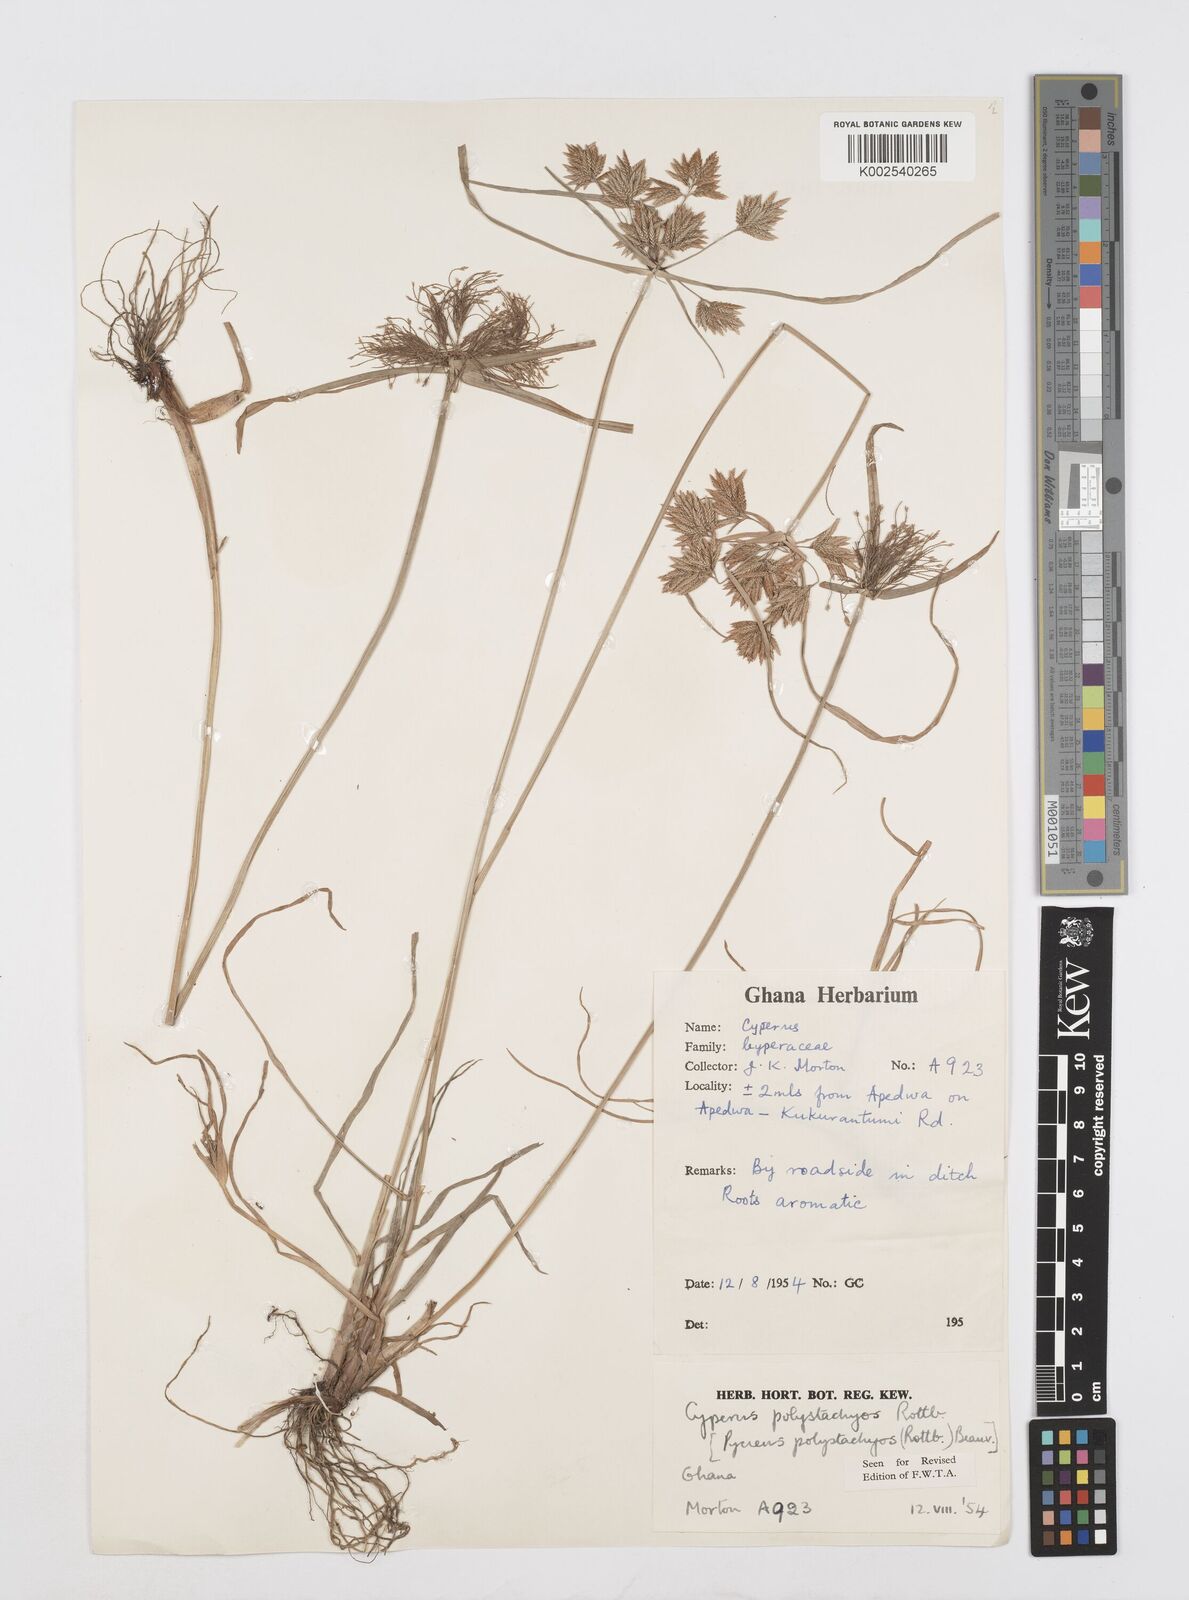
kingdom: Plantae
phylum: Tracheophyta
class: Liliopsida
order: Poales
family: Cyperaceae
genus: Cyperus
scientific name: Cyperus polystachyos
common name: Bunchy flat sedge
